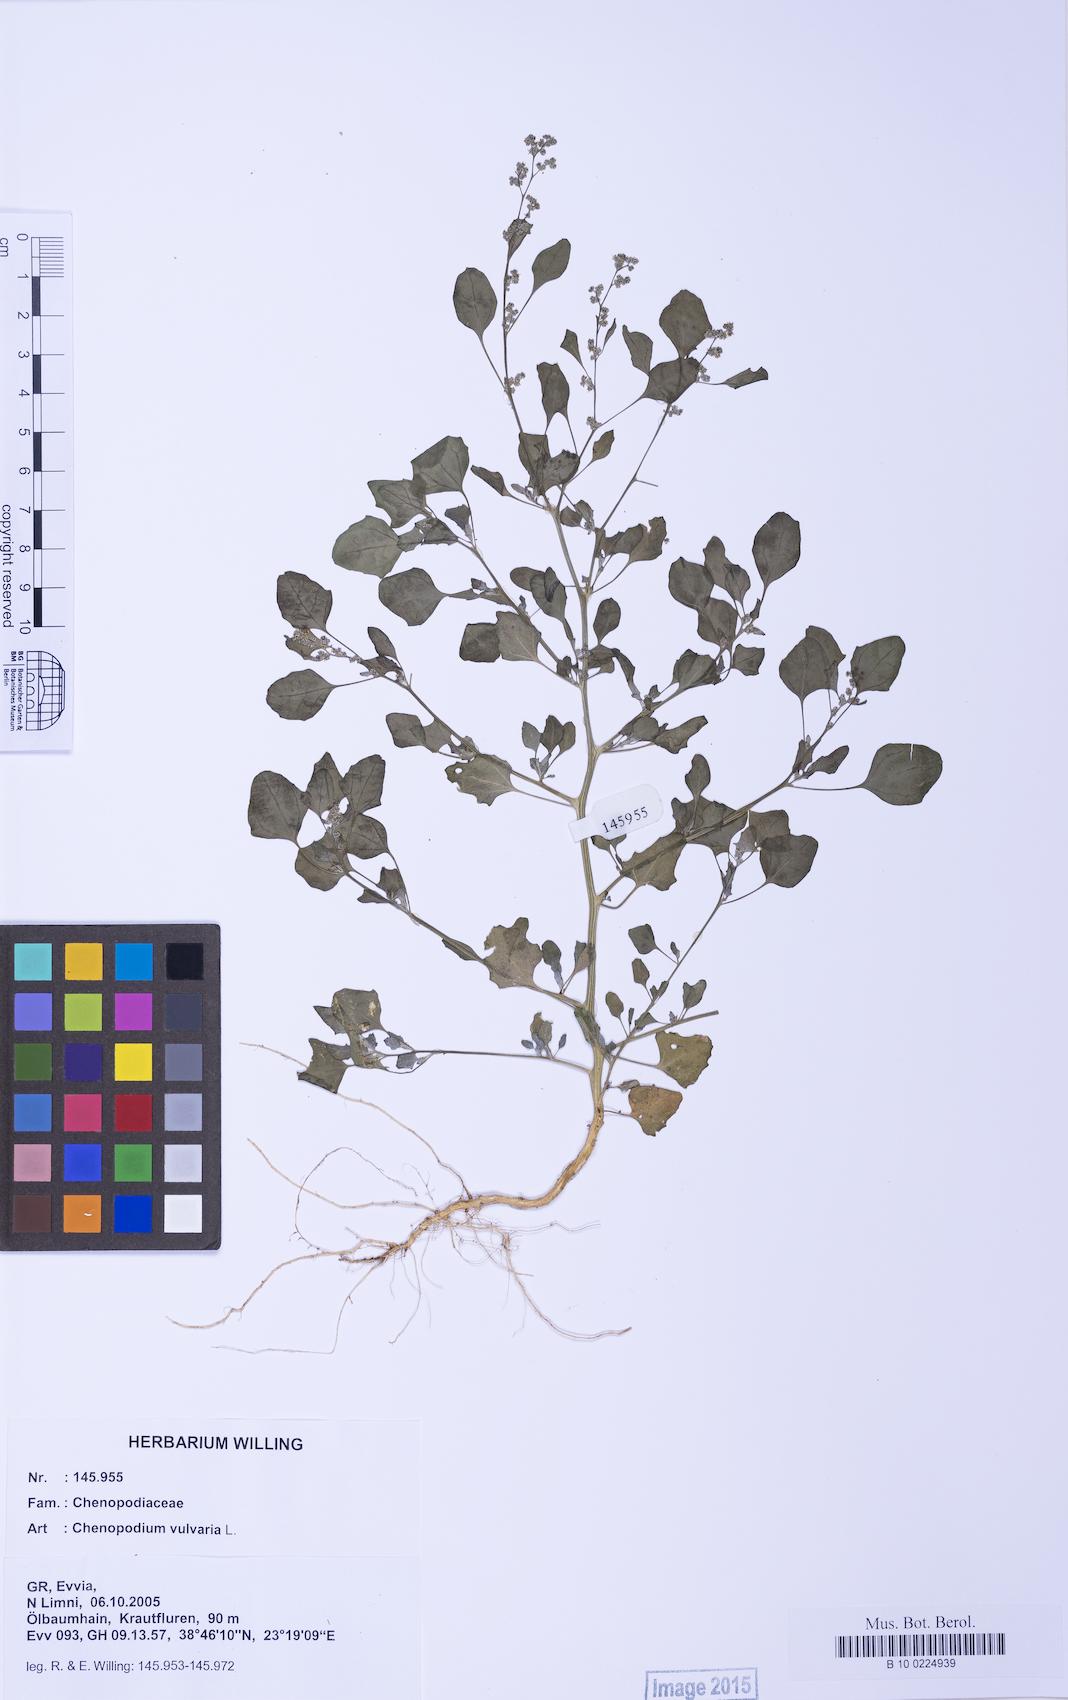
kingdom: Plantae
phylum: Tracheophyta
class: Magnoliopsida
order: Caryophyllales
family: Amaranthaceae
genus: Chenopodium
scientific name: Chenopodium vulvaria
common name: Stinking goosefoot
